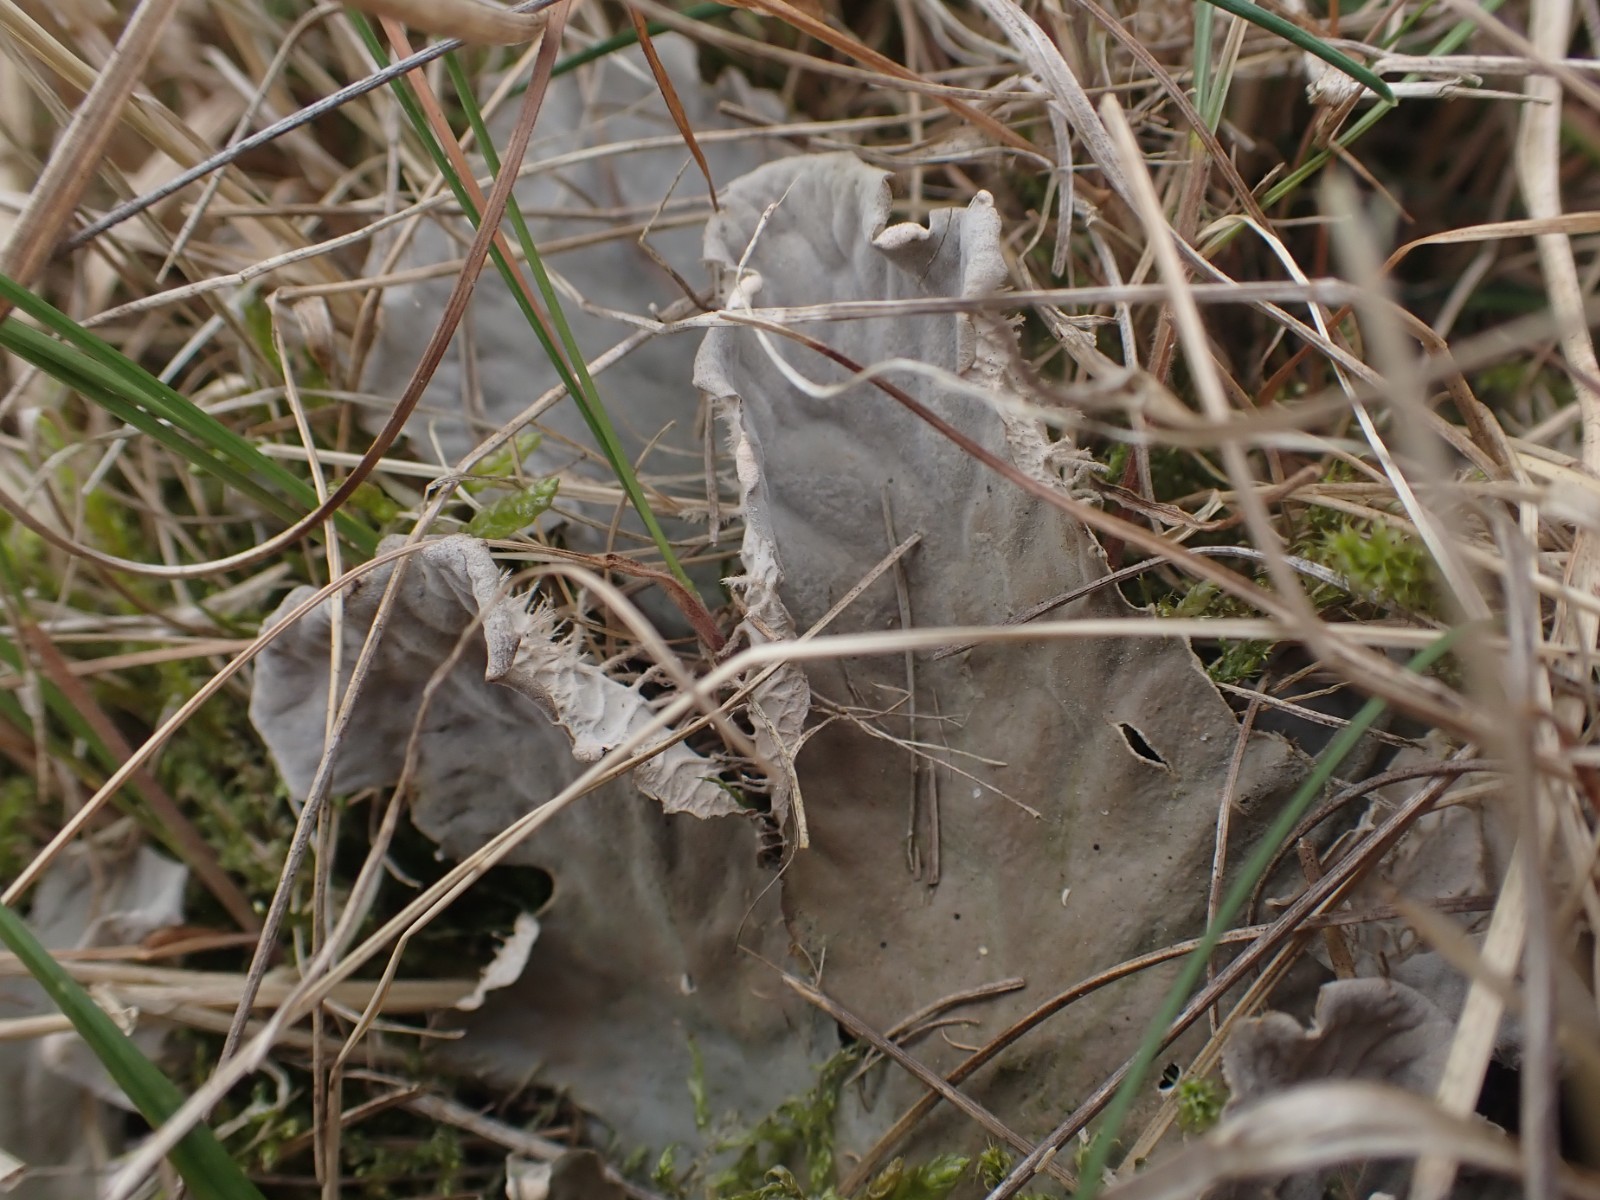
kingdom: Fungi
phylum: Ascomycota
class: Lecanoromycetes
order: Peltigerales
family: Peltigeraceae
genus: Peltigera
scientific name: Peltigera membranacea
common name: tynd skjoldlav
